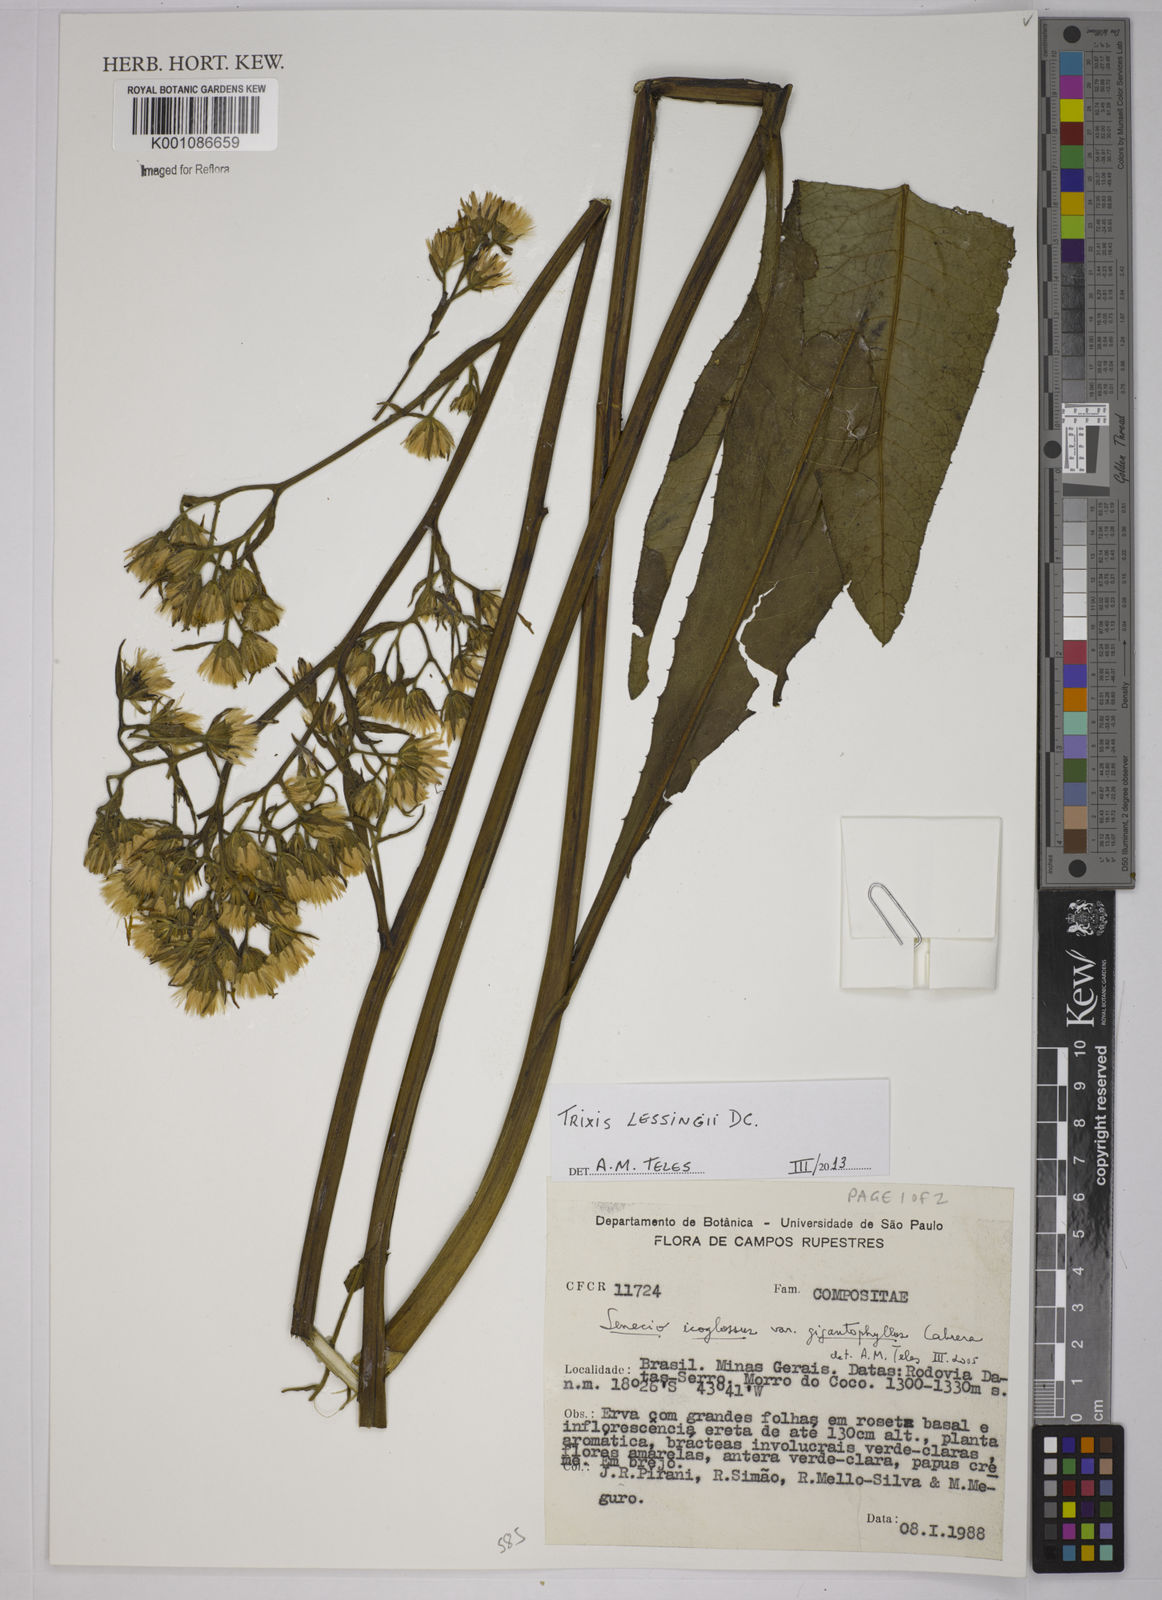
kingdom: Plantae
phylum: Tracheophyta
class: Magnoliopsida
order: Asterales
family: Asteraceae
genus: Trixis
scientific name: Trixis lessingii
